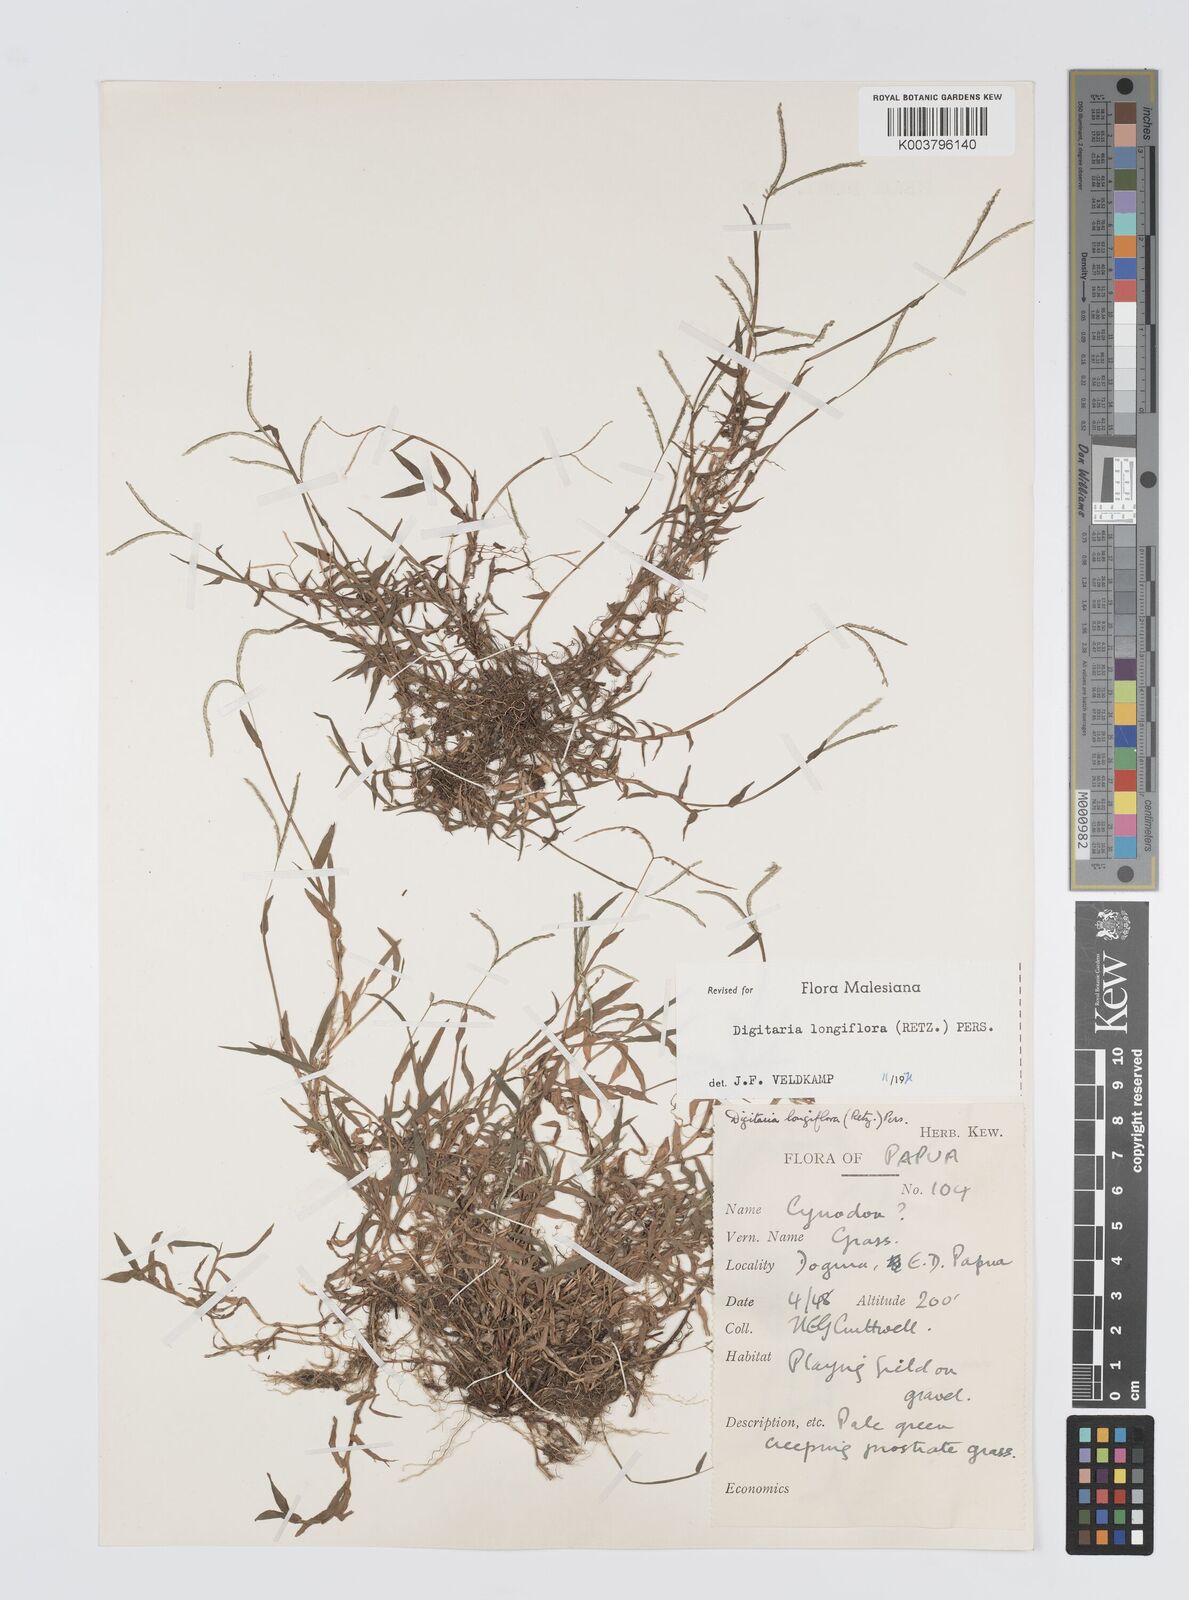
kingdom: Plantae
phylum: Tracheophyta
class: Liliopsida
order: Poales
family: Poaceae
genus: Digitaria
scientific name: Digitaria longiflora
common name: Wire crabgrass
